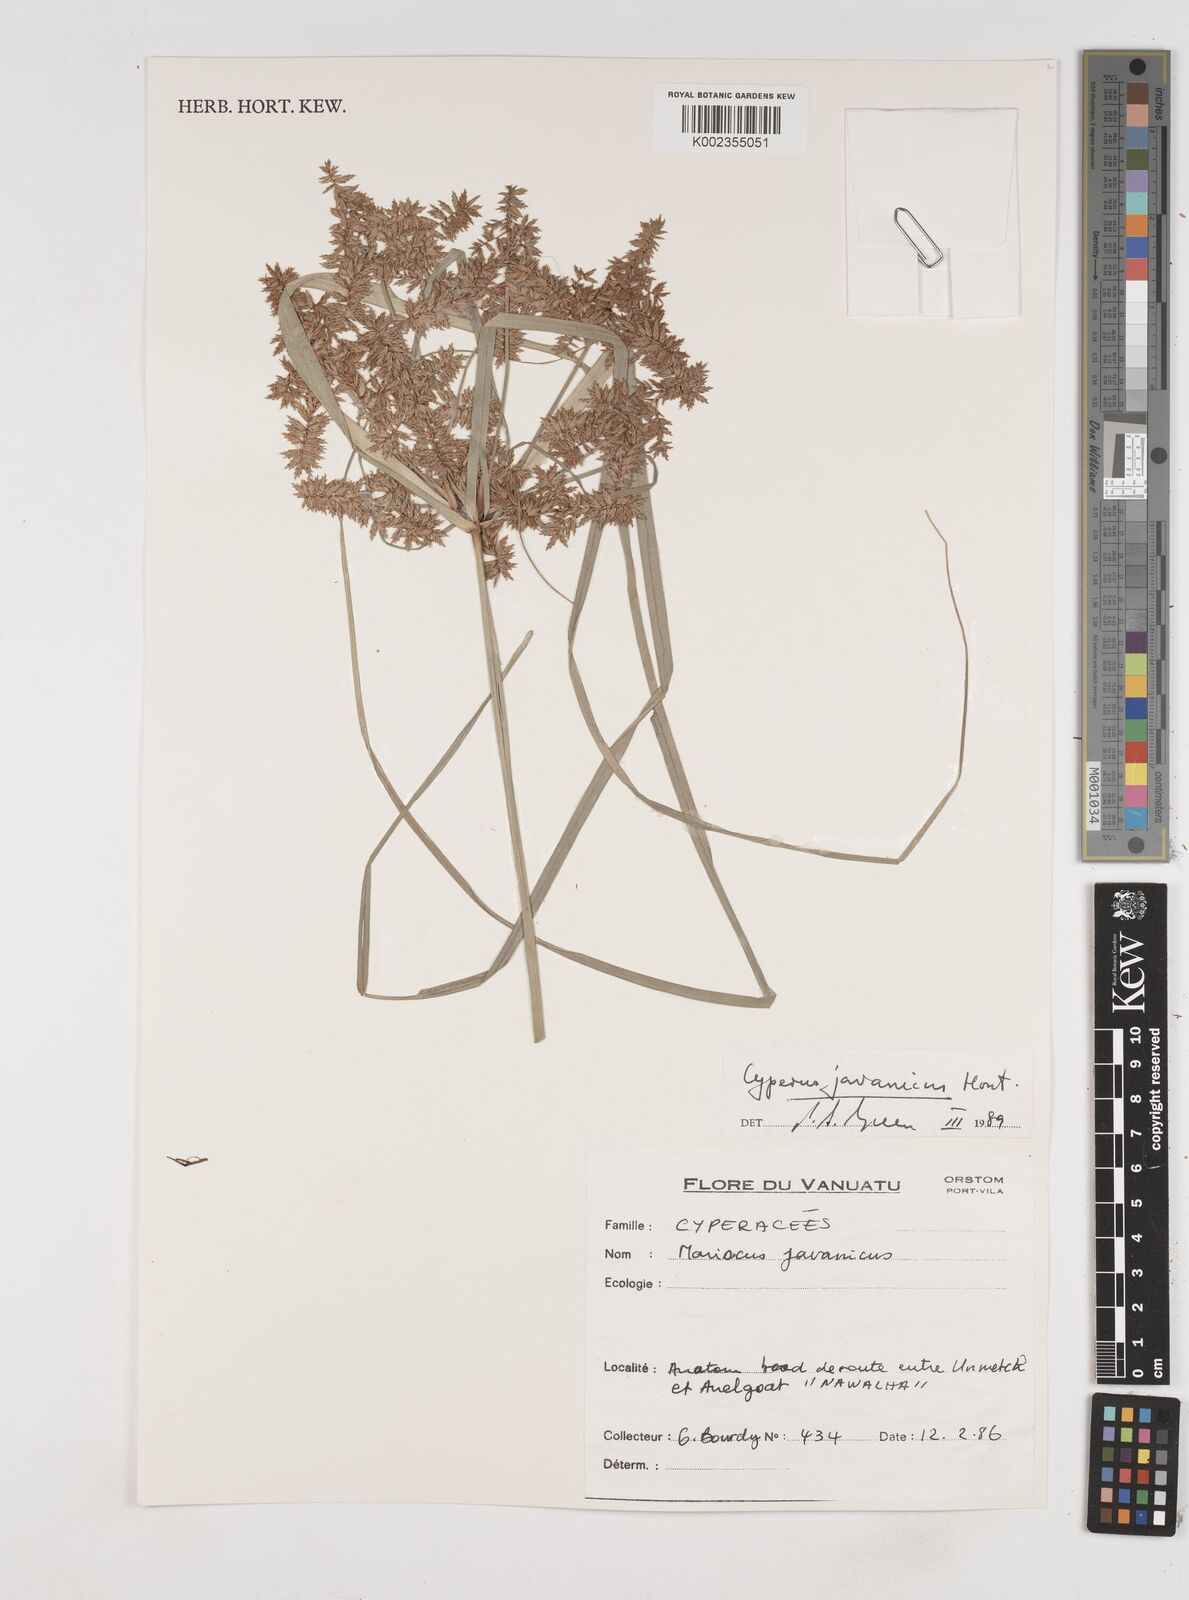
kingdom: Plantae
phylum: Tracheophyta
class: Liliopsida
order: Poales
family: Cyperaceae
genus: Cyperus
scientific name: Cyperus javanicus
